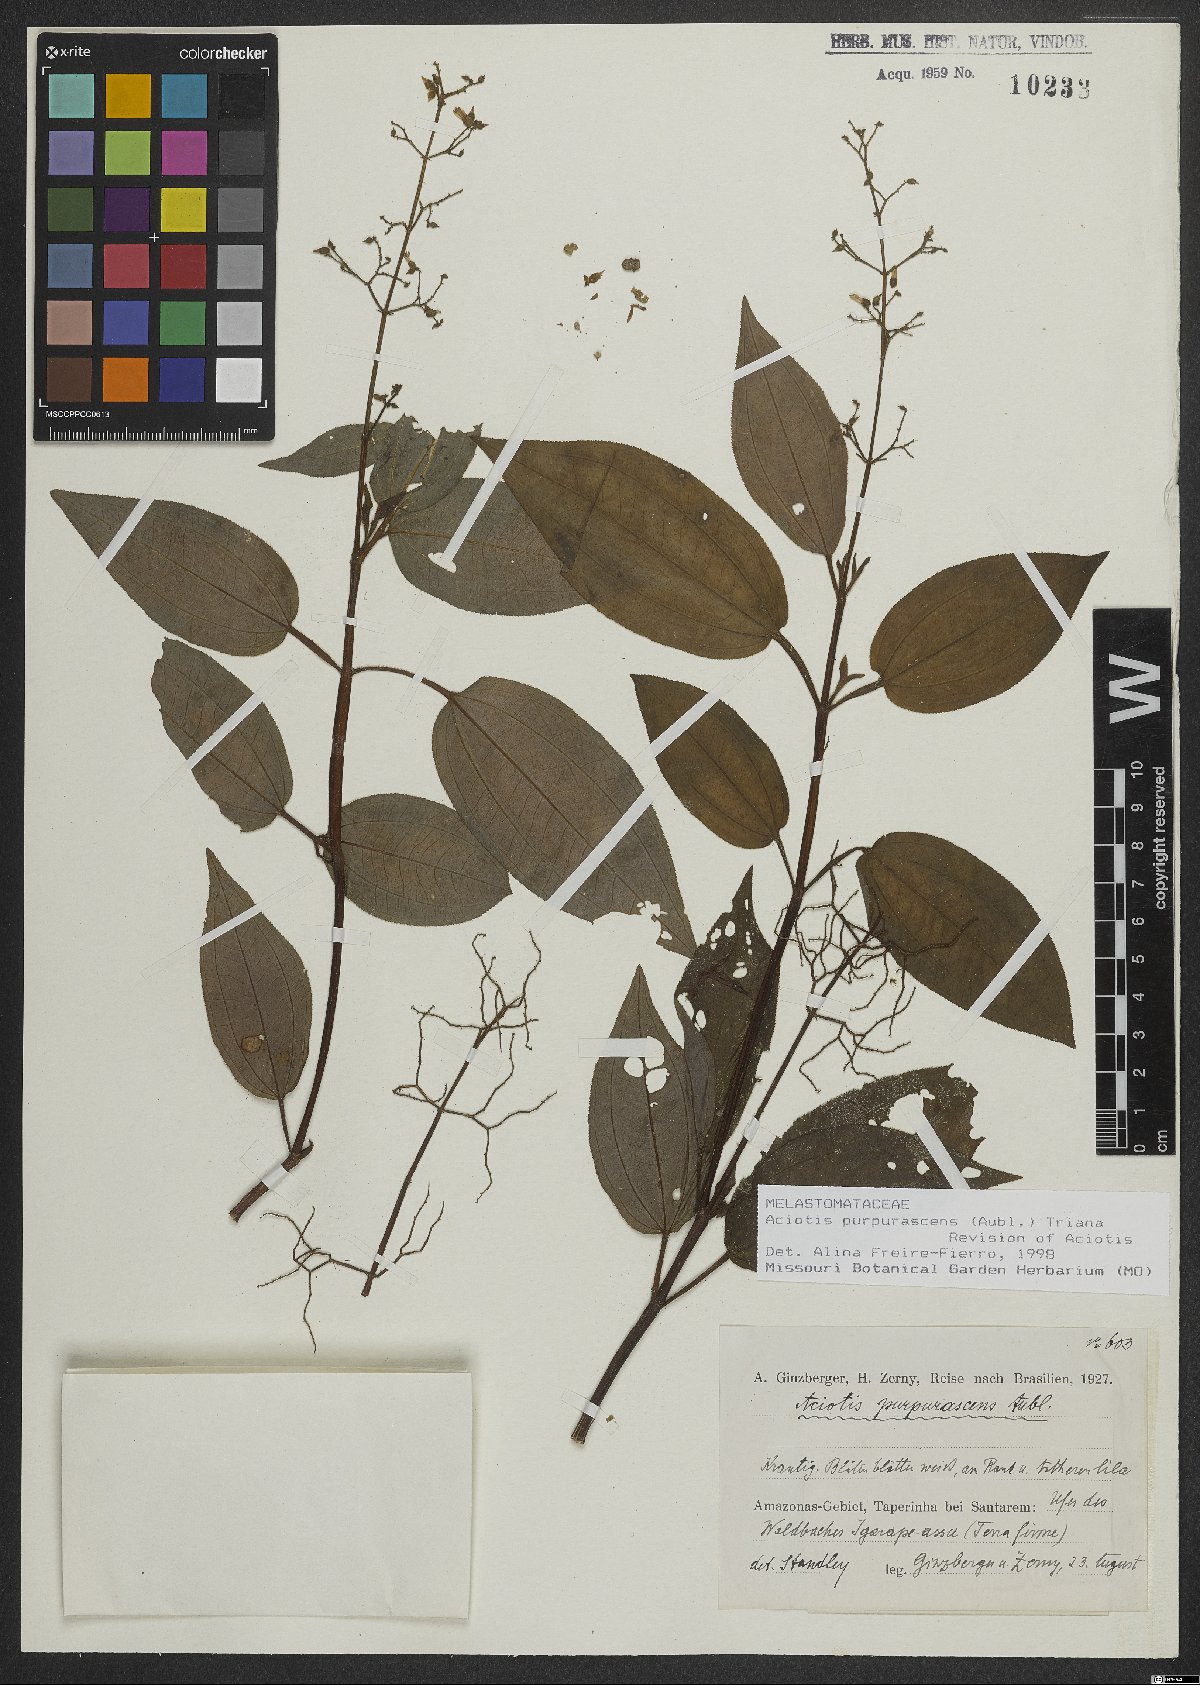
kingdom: Plantae
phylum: Tracheophyta
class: Magnoliopsida
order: Myrtales
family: Melastomataceae
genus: Aciotis
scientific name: Aciotis purpurascens
